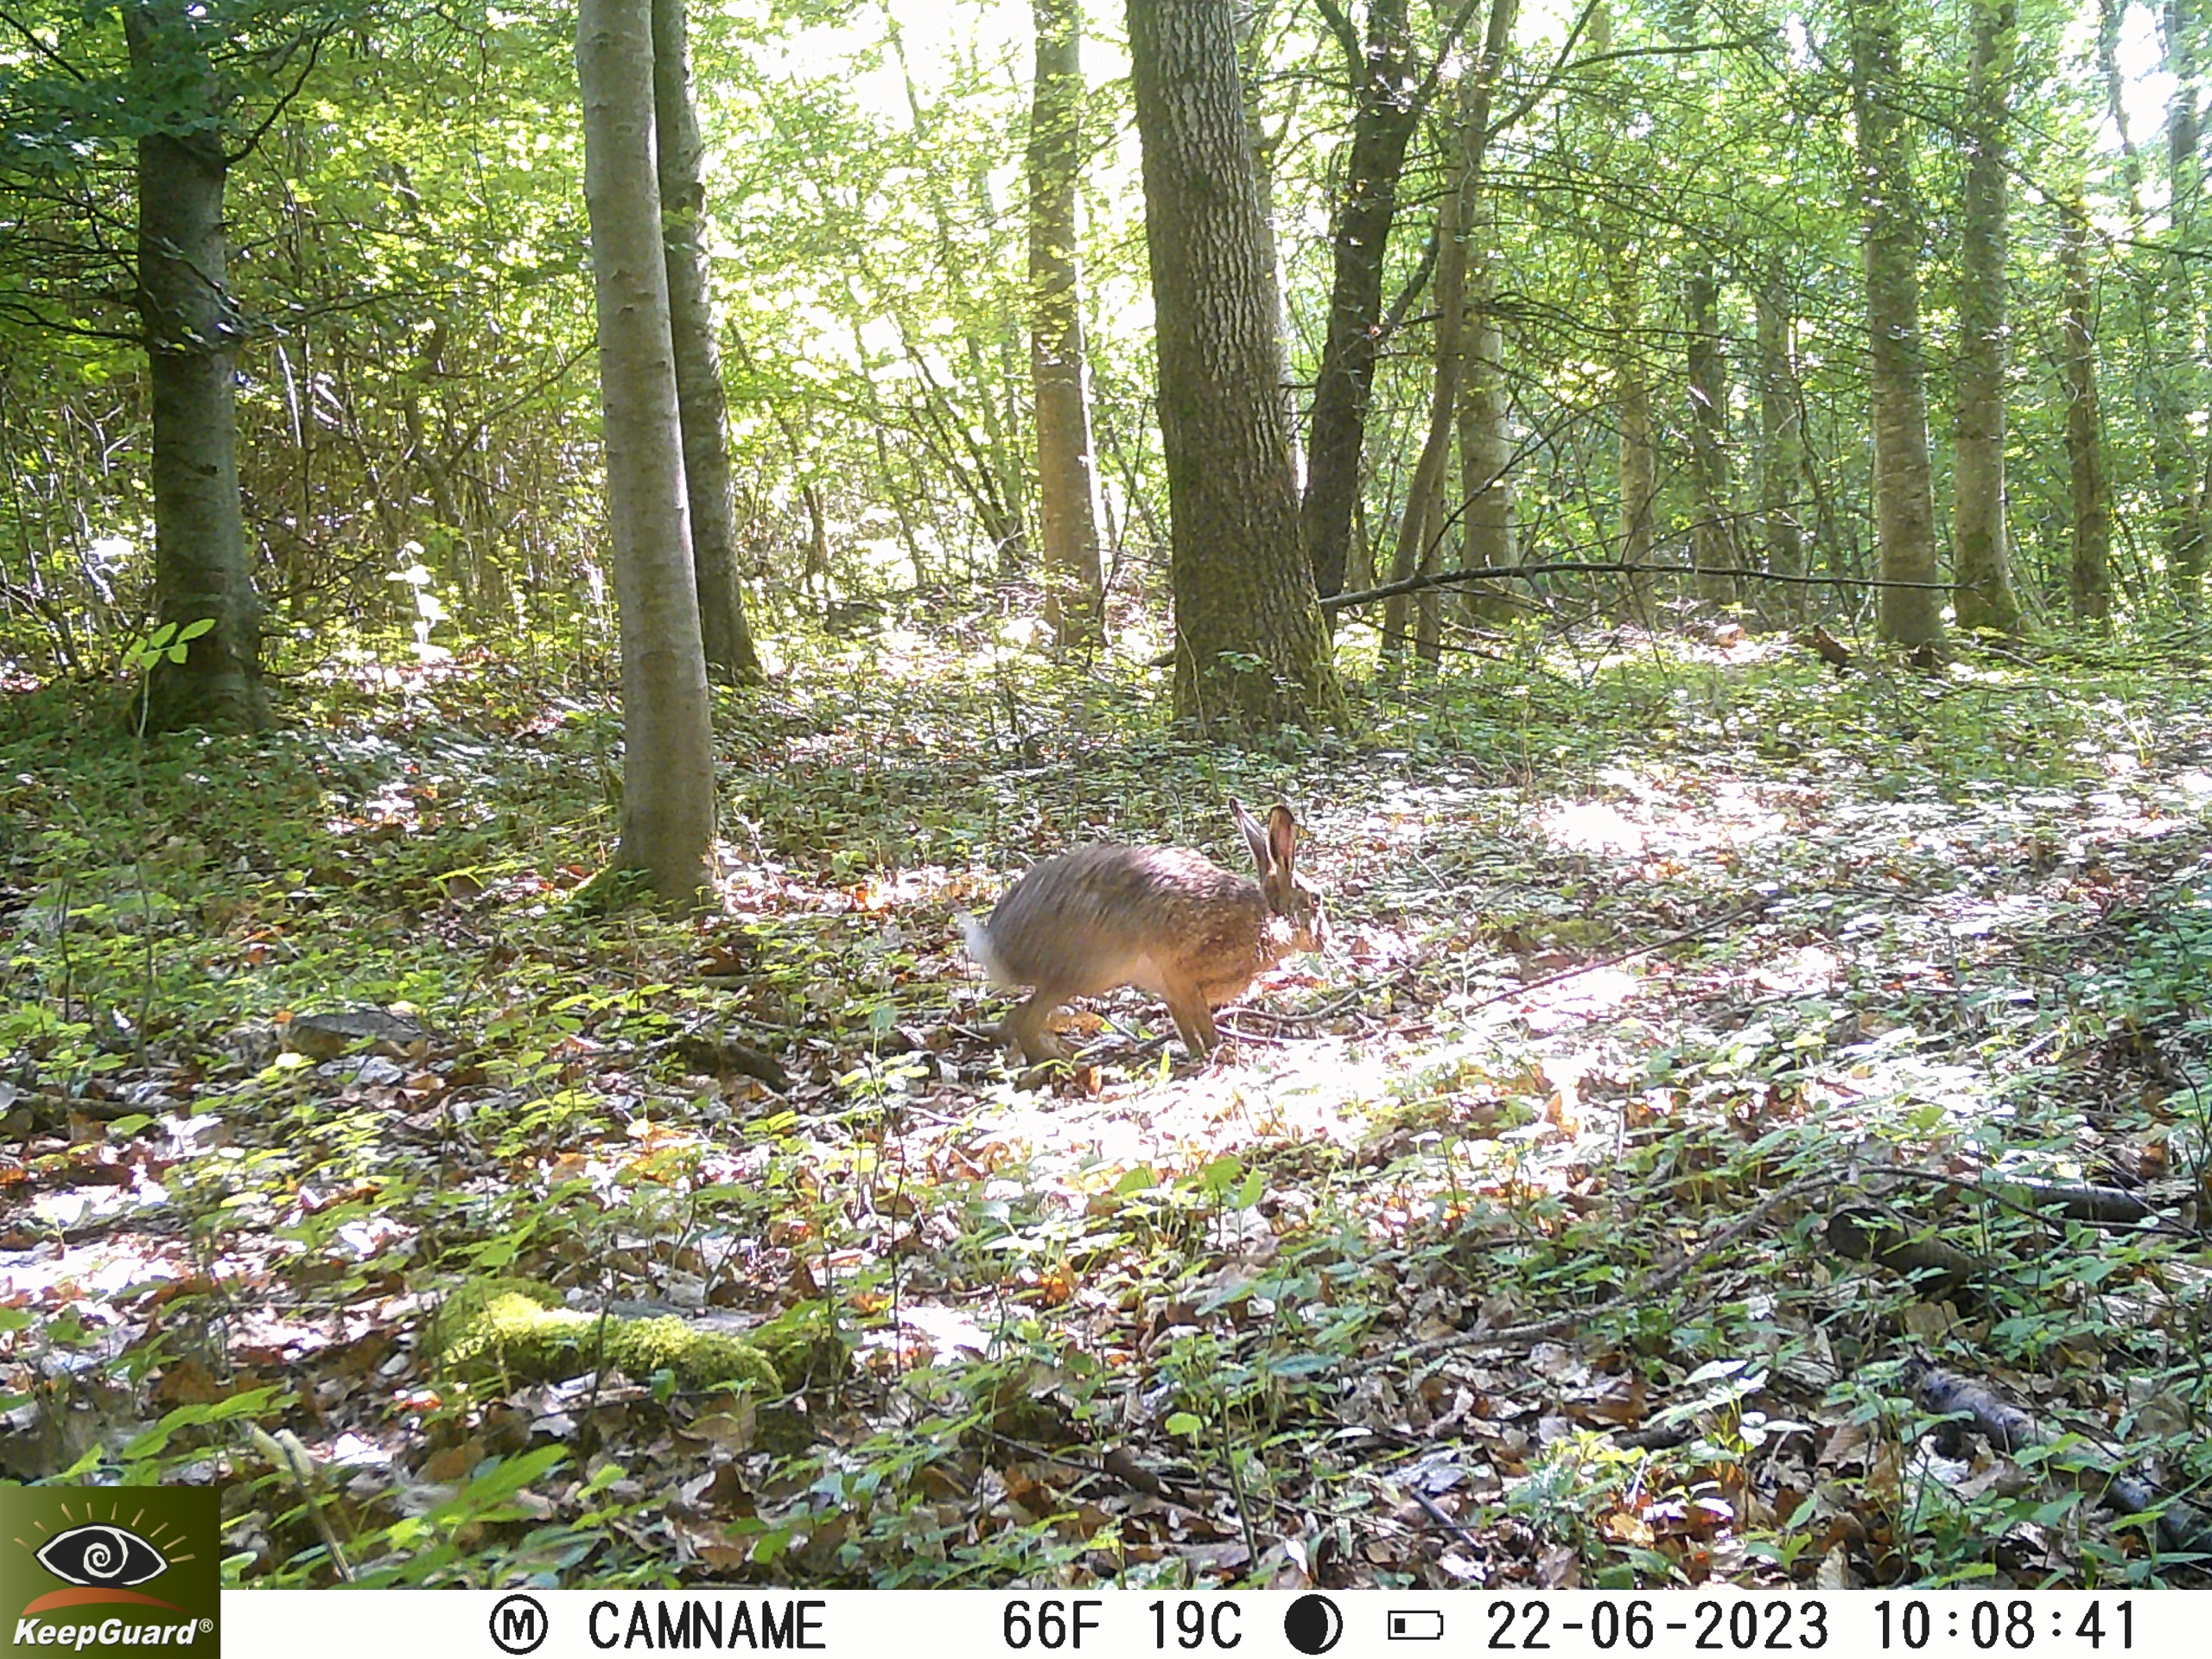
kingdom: Animalia
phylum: Chordata
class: Mammalia
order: Lagomorpha
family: Leporidae
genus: Lepus
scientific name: Lepus europaeus
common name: Hare
